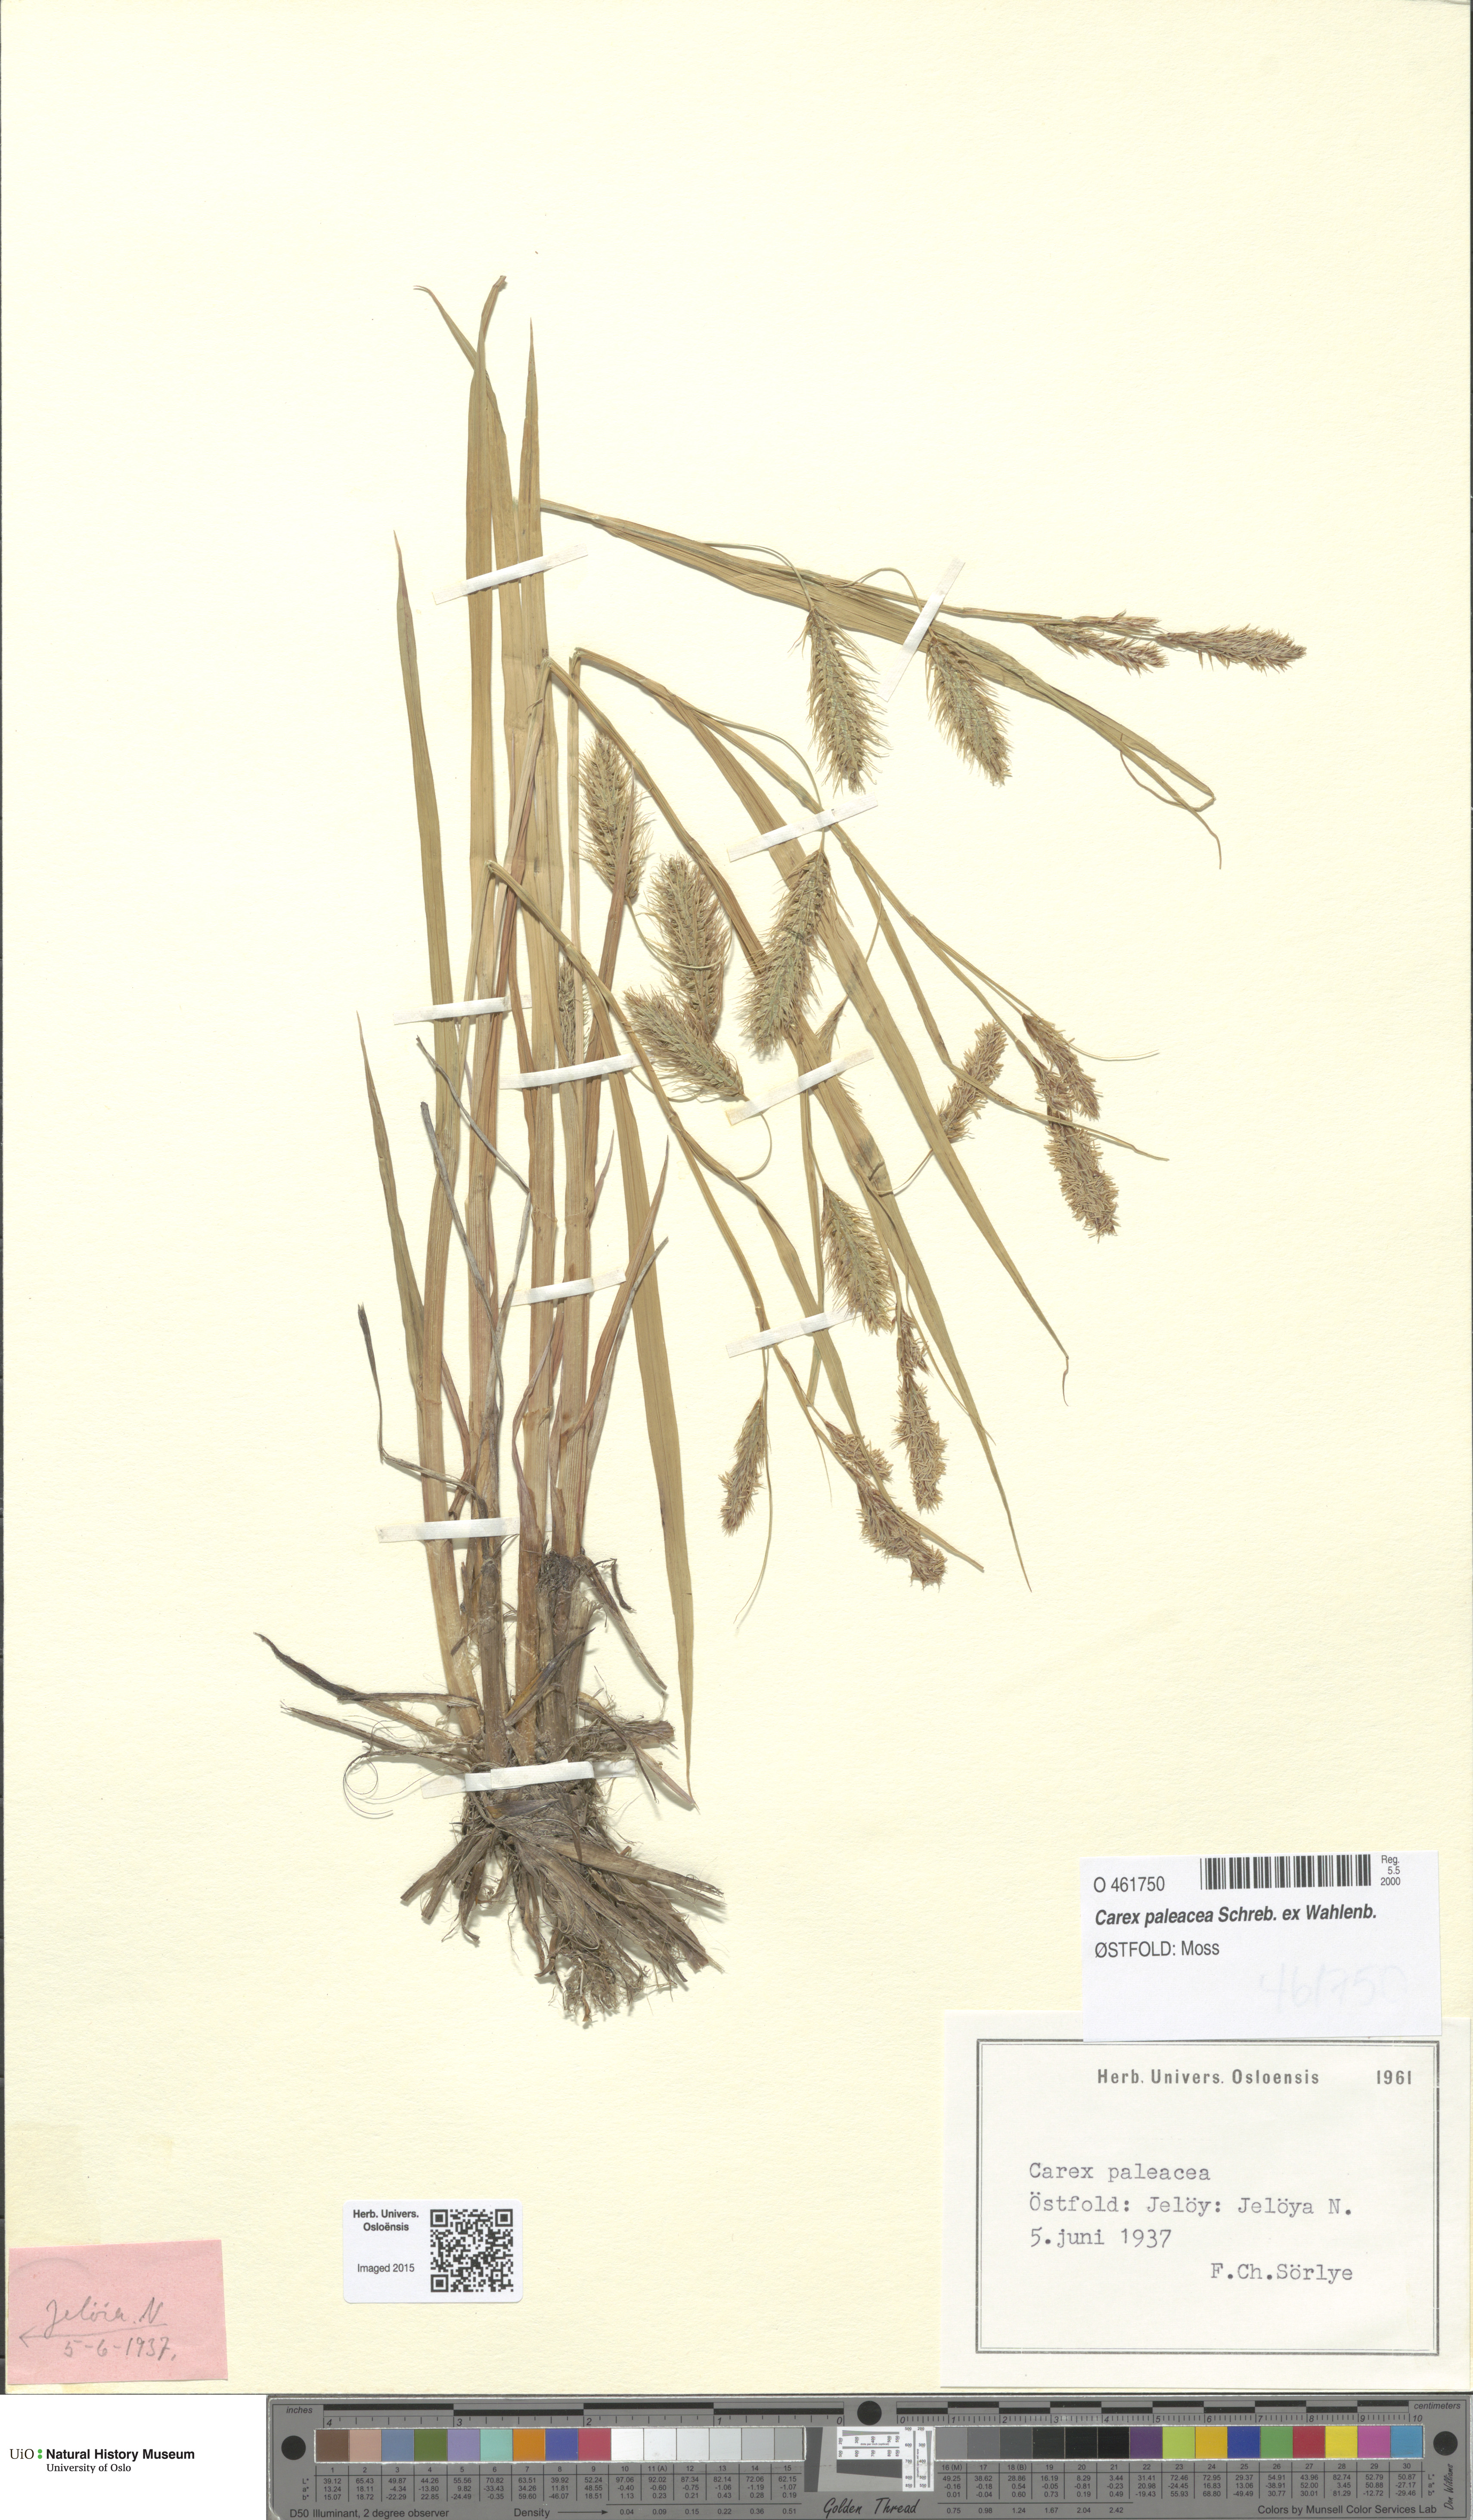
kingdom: Plantae
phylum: Tracheophyta
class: Liliopsida
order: Poales
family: Cyperaceae
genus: Carex
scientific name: Carex paleacea
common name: Chaffy sedge
